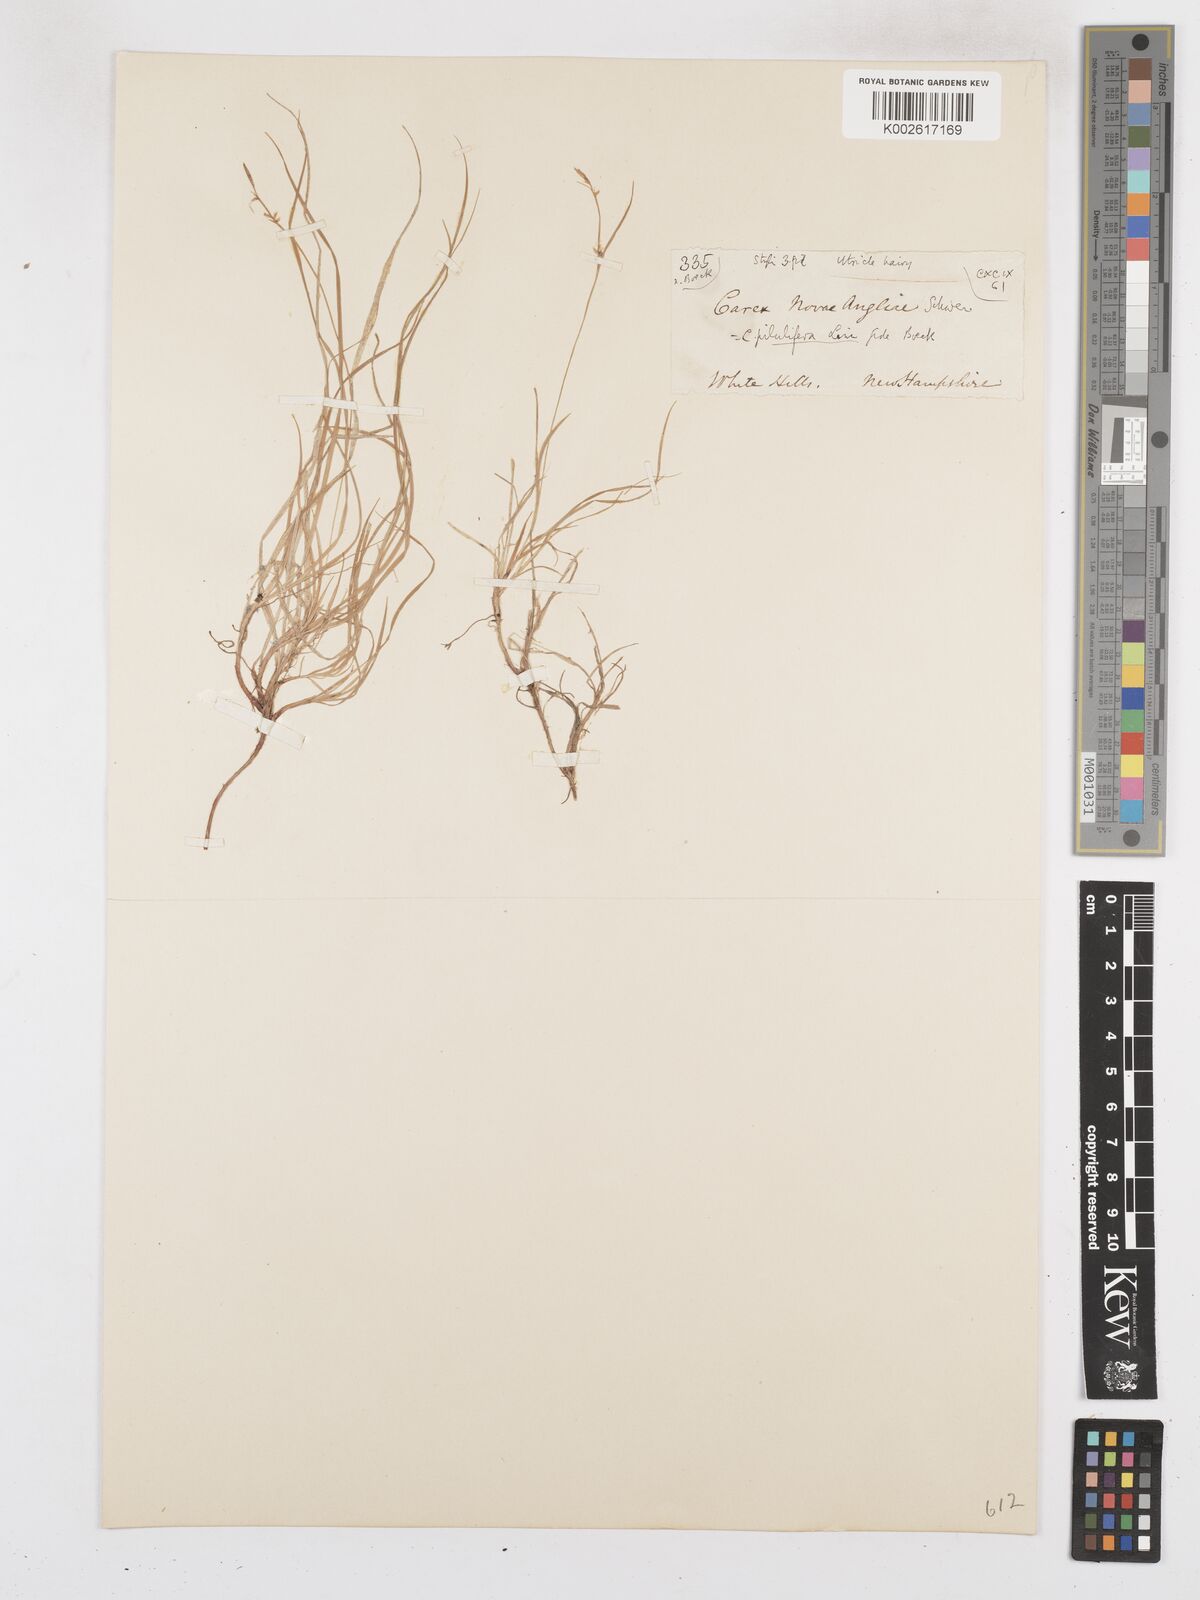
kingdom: Plantae
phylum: Tracheophyta
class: Liliopsida
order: Poales
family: Cyperaceae
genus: Carex
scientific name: Carex novae-angliae
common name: New england sedge
